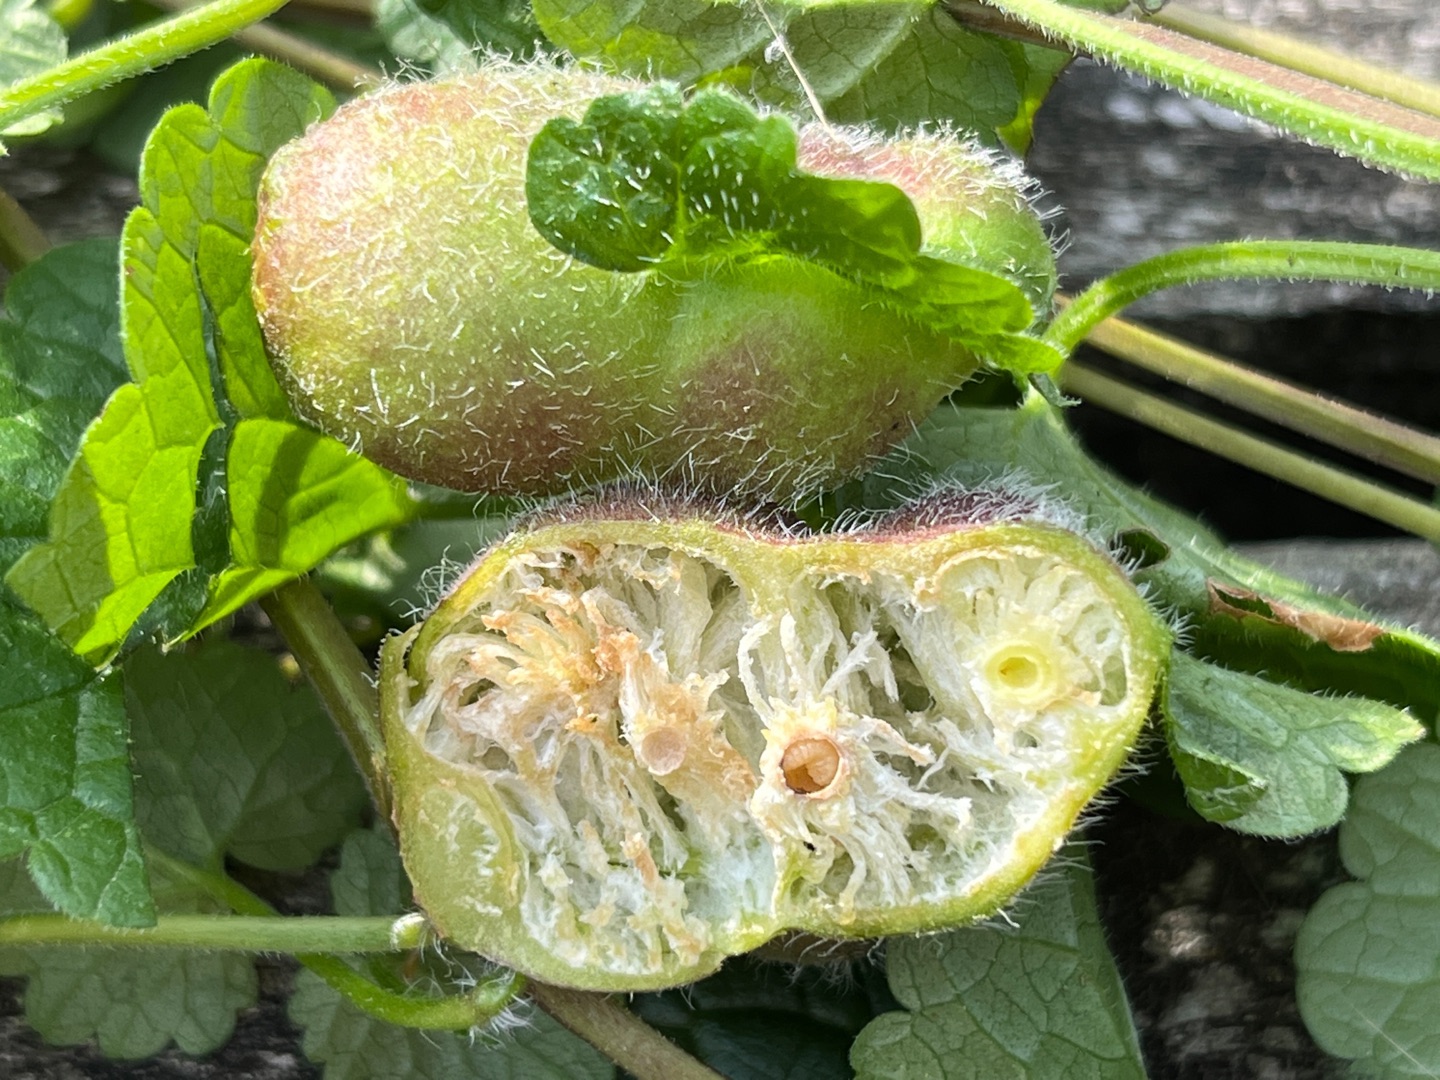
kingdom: Animalia
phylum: Arthropoda
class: Insecta
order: Hymenoptera
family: Cynipidae
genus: Liposthenes
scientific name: Liposthenes glechomae
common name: Korsknapgalhveps
